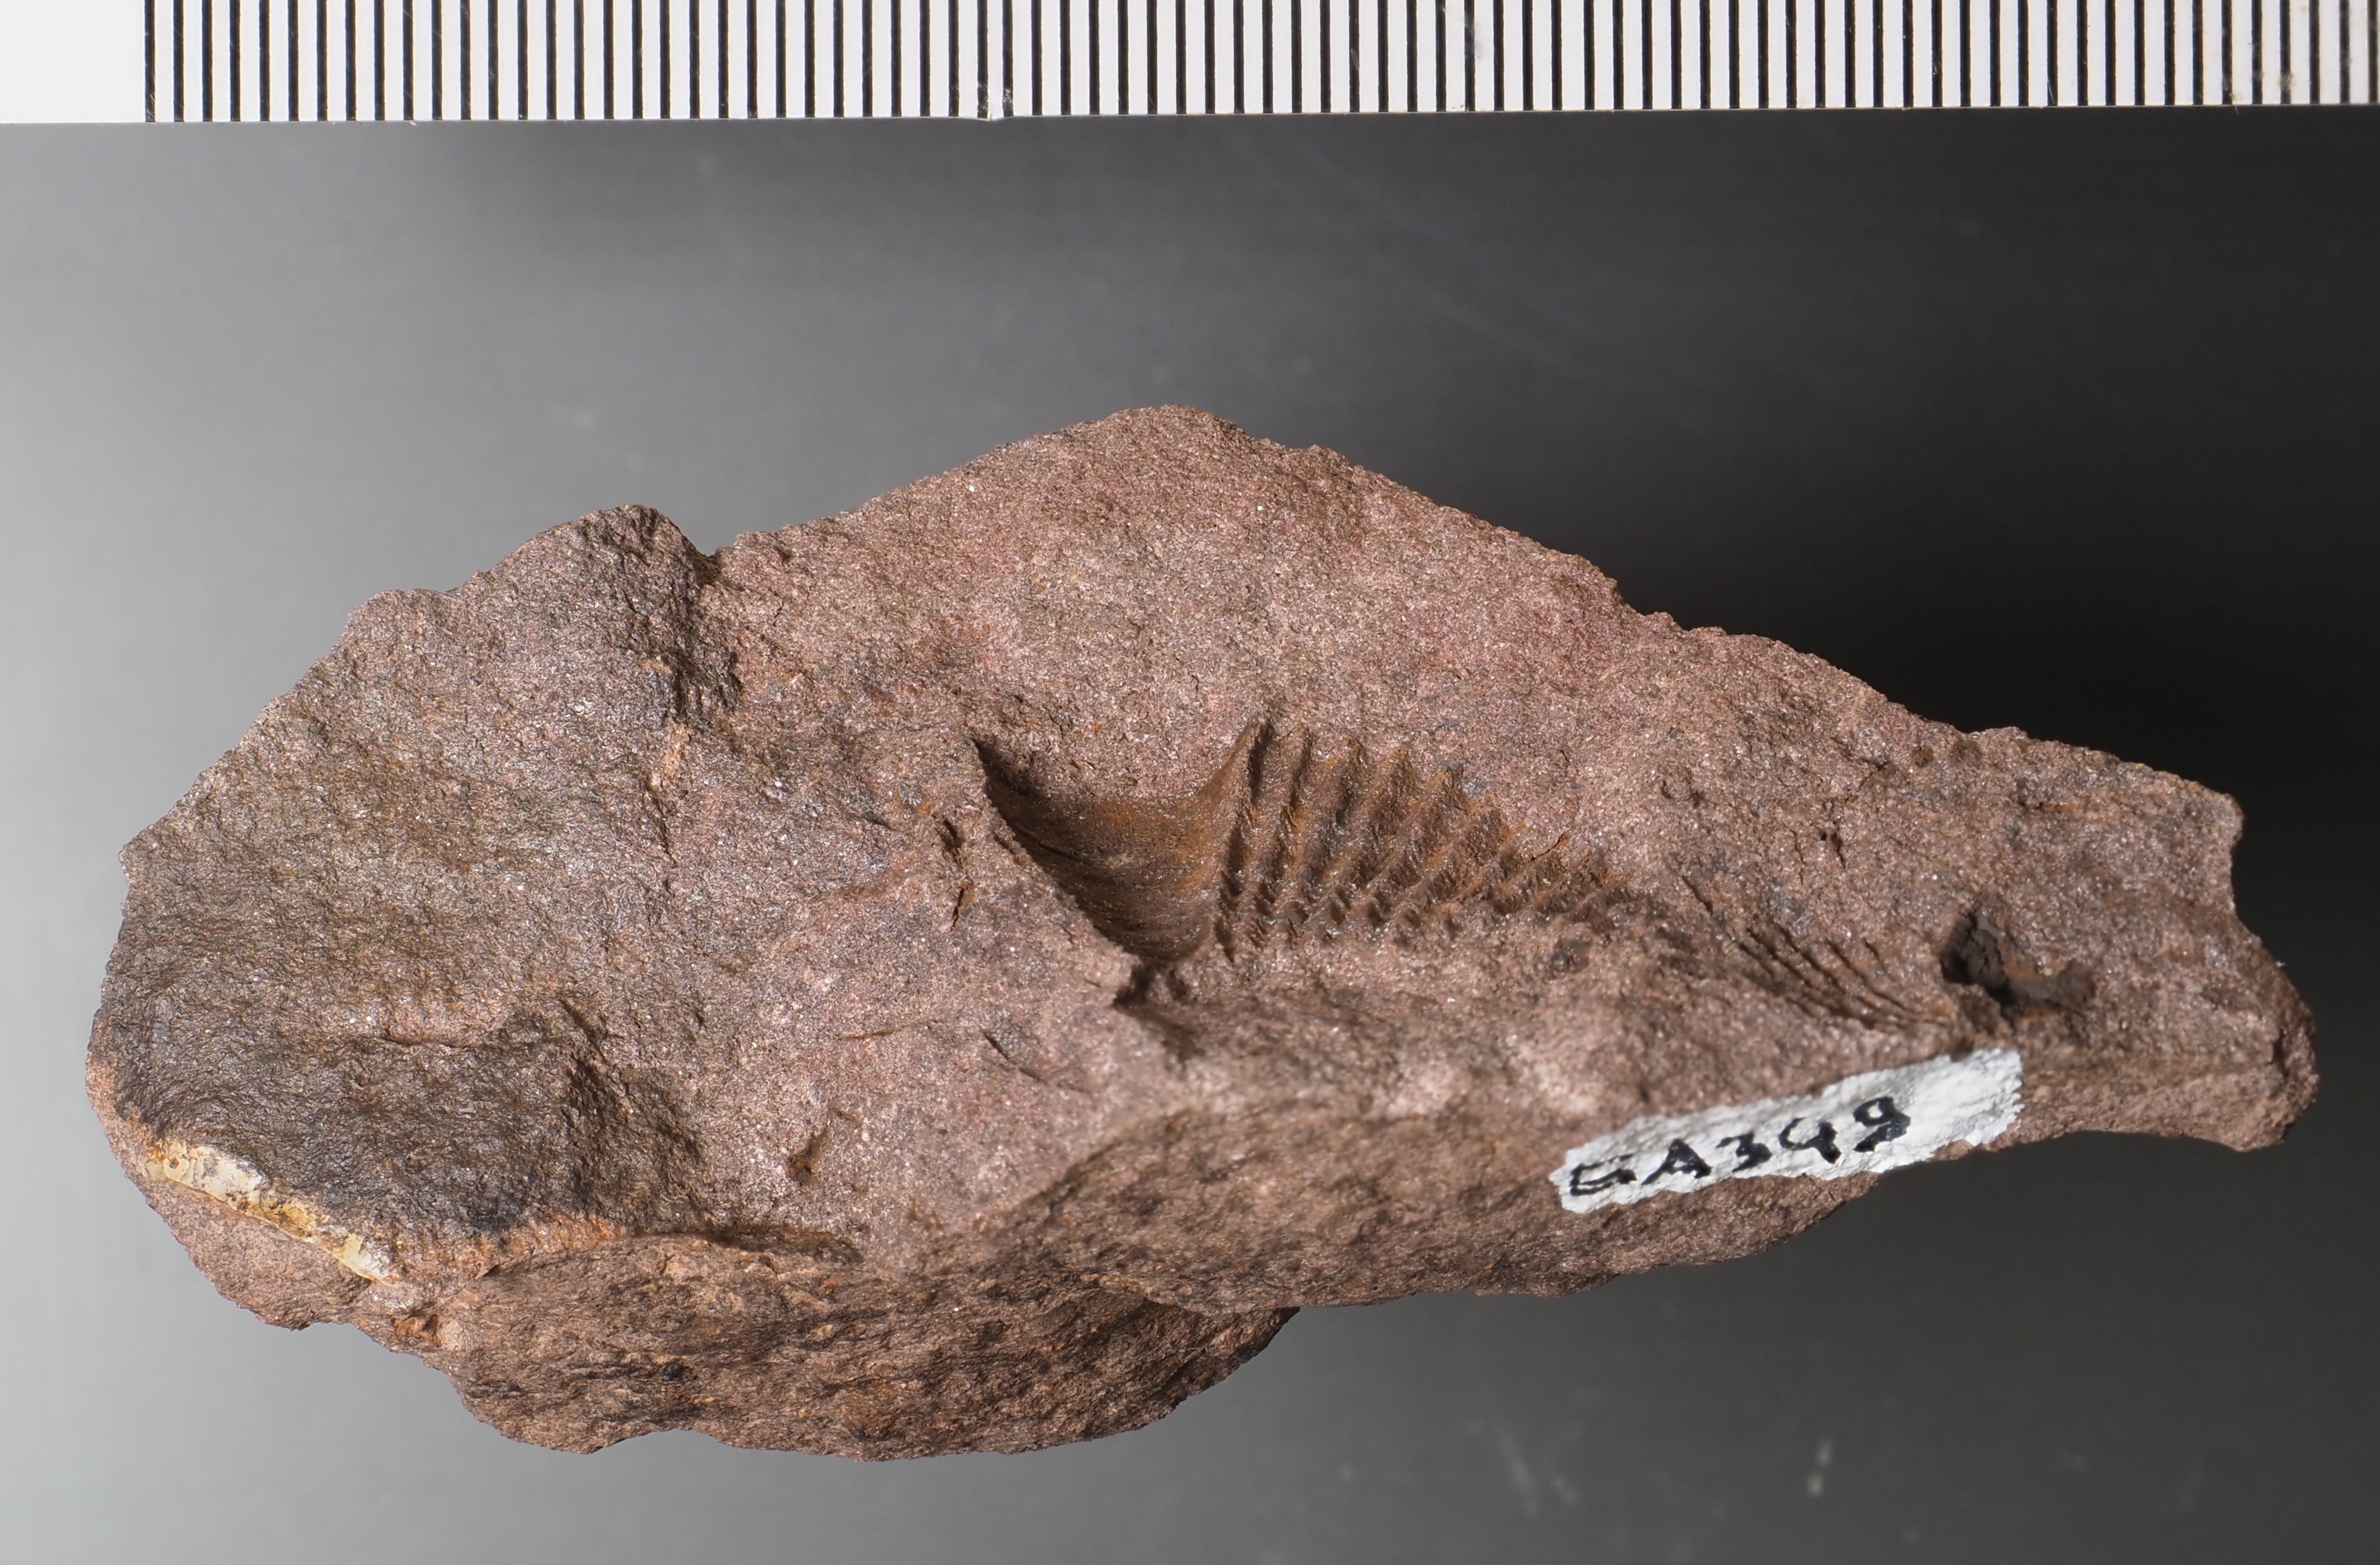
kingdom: Animalia
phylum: Brachiopoda
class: Rhynchonellata
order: Rhynchonellida
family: Trigonirhynchiidae
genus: Oligoptycherhynchus
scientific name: Oligoptycherhynchus
